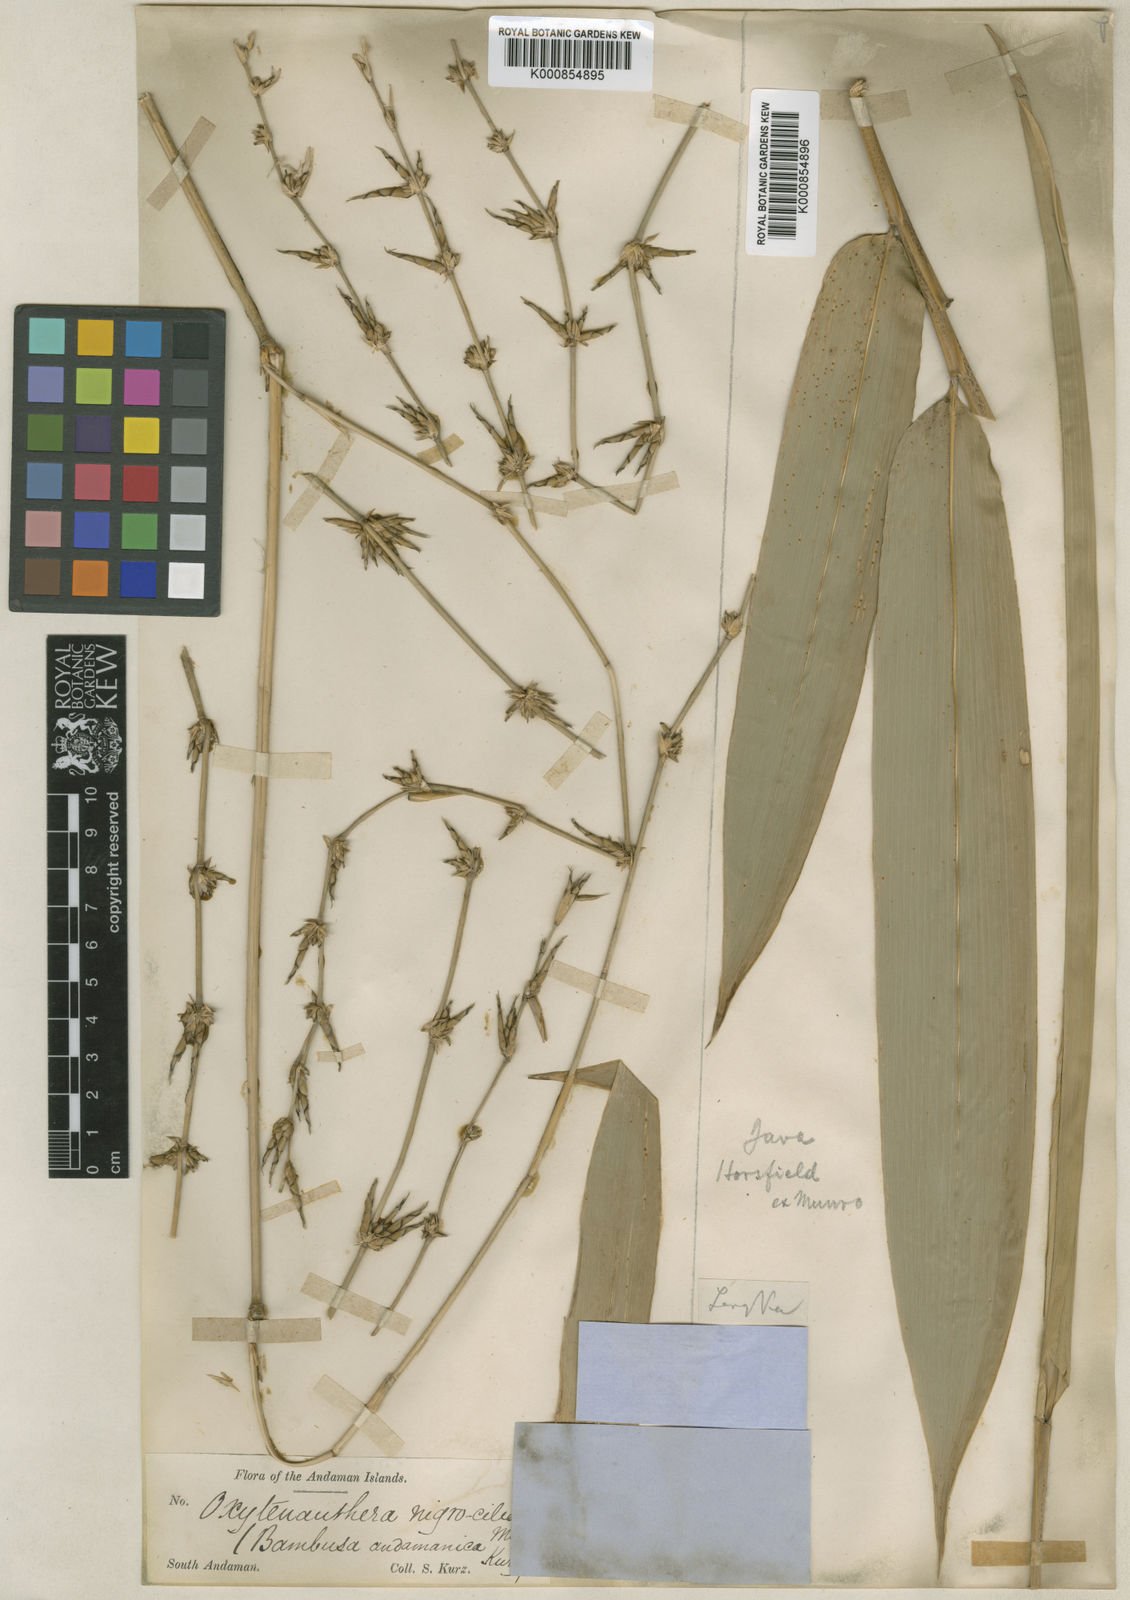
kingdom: Plantae
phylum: Tracheophyta
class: Liliopsida
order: Poales
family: Poaceae
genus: Gigantochloa
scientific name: Gigantochloa nigrociliata
